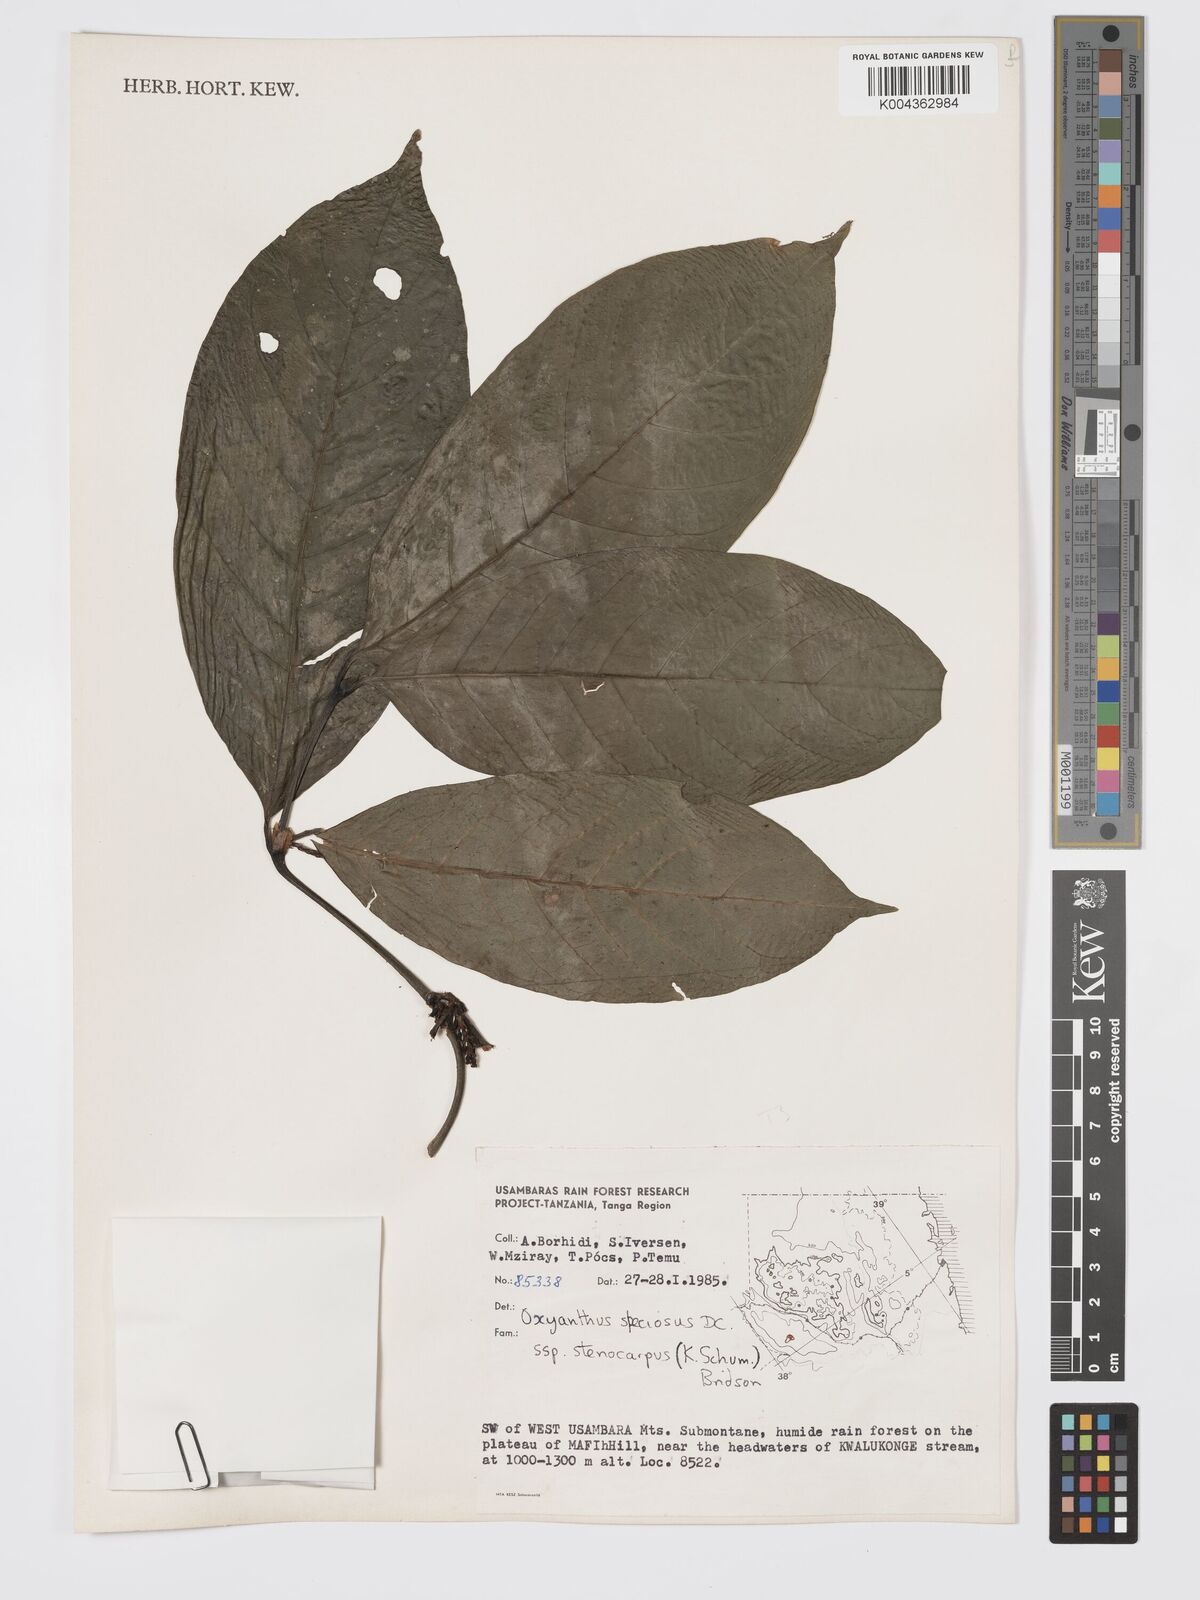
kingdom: Plantae
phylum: Tracheophyta
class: Magnoliopsida
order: Gentianales
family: Rubiaceae
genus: Oxyanthus
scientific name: Oxyanthus speciosus
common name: Whipstick loquat
